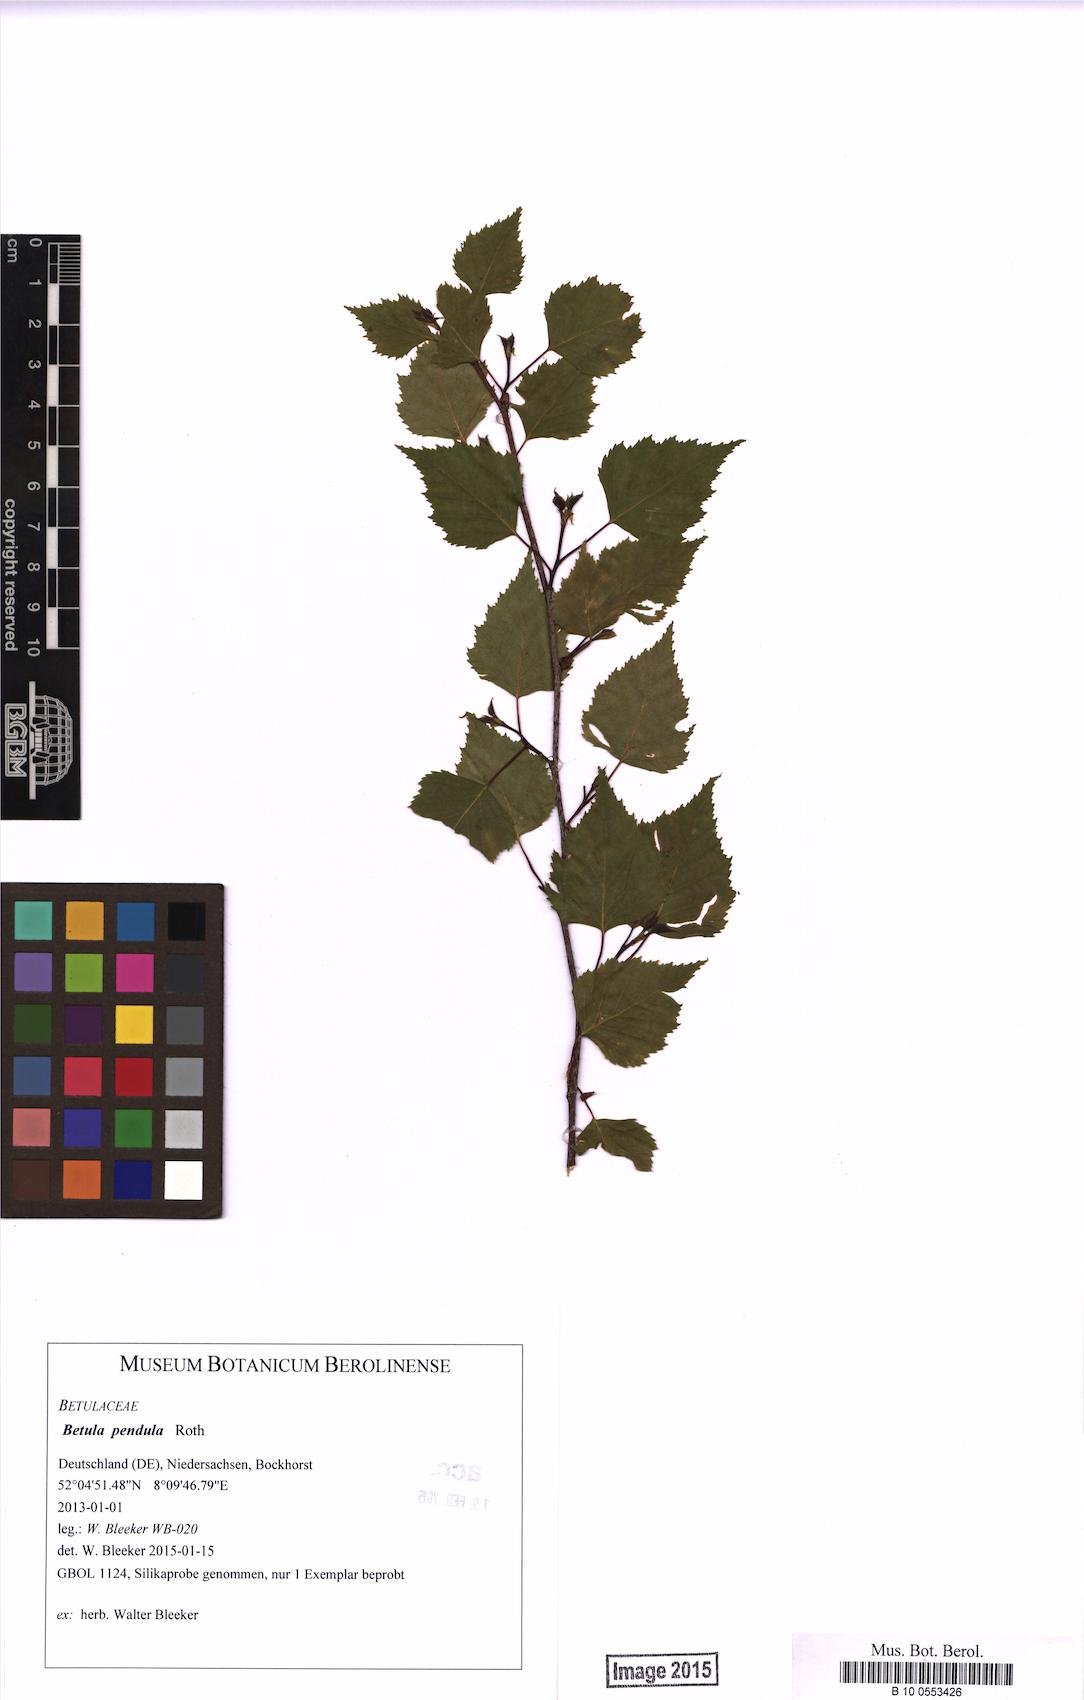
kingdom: Plantae
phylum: Tracheophyta
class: Magnoliopsida
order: Fagales
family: Betulaceae
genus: Betula
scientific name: Betula pendula
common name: Silver birch
